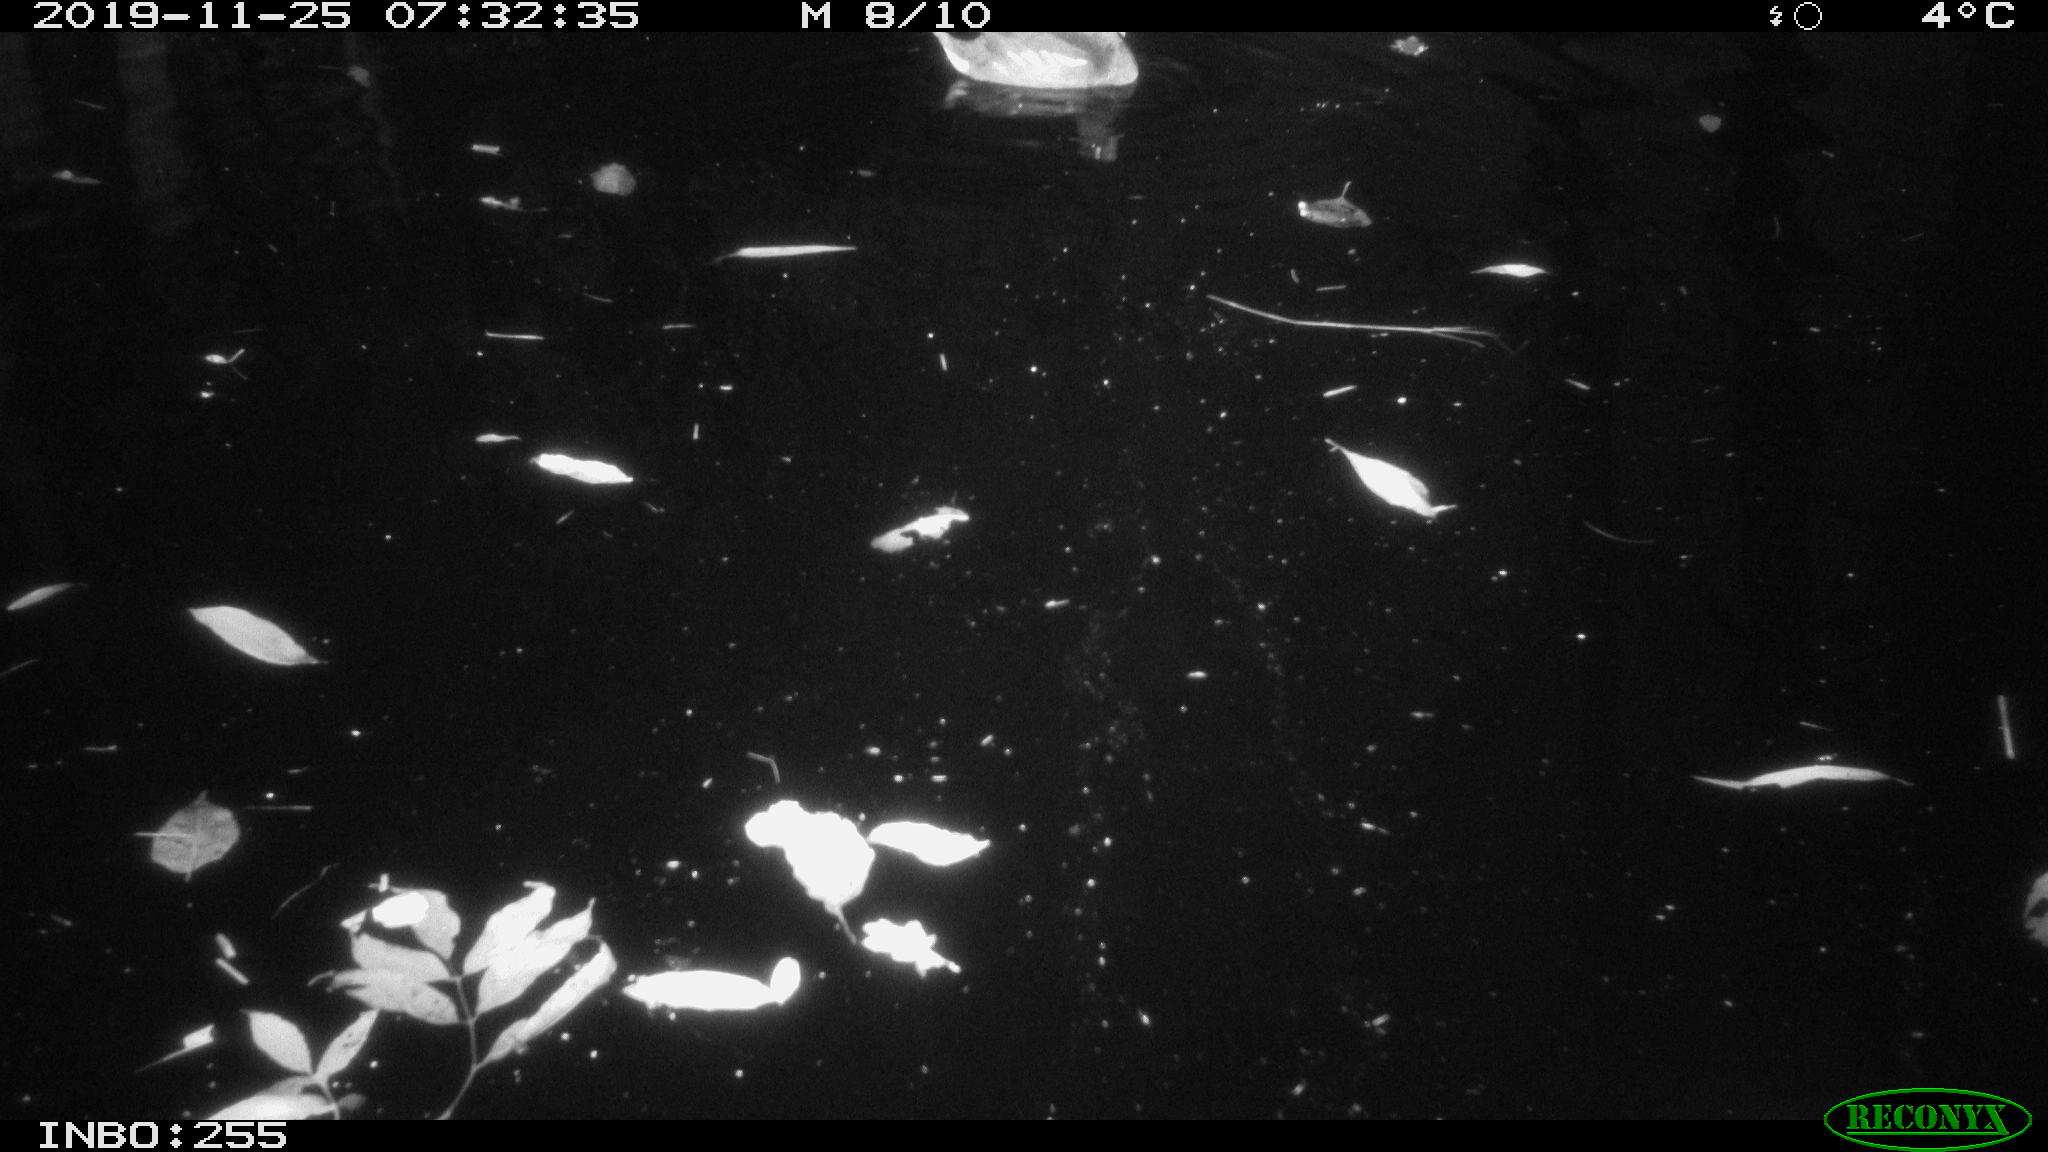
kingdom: Animalia
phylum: Chordata
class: Aves
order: Gruiformes
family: Rallidae
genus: Gallinula
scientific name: Gallinula chloropus
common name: Common moorhen
